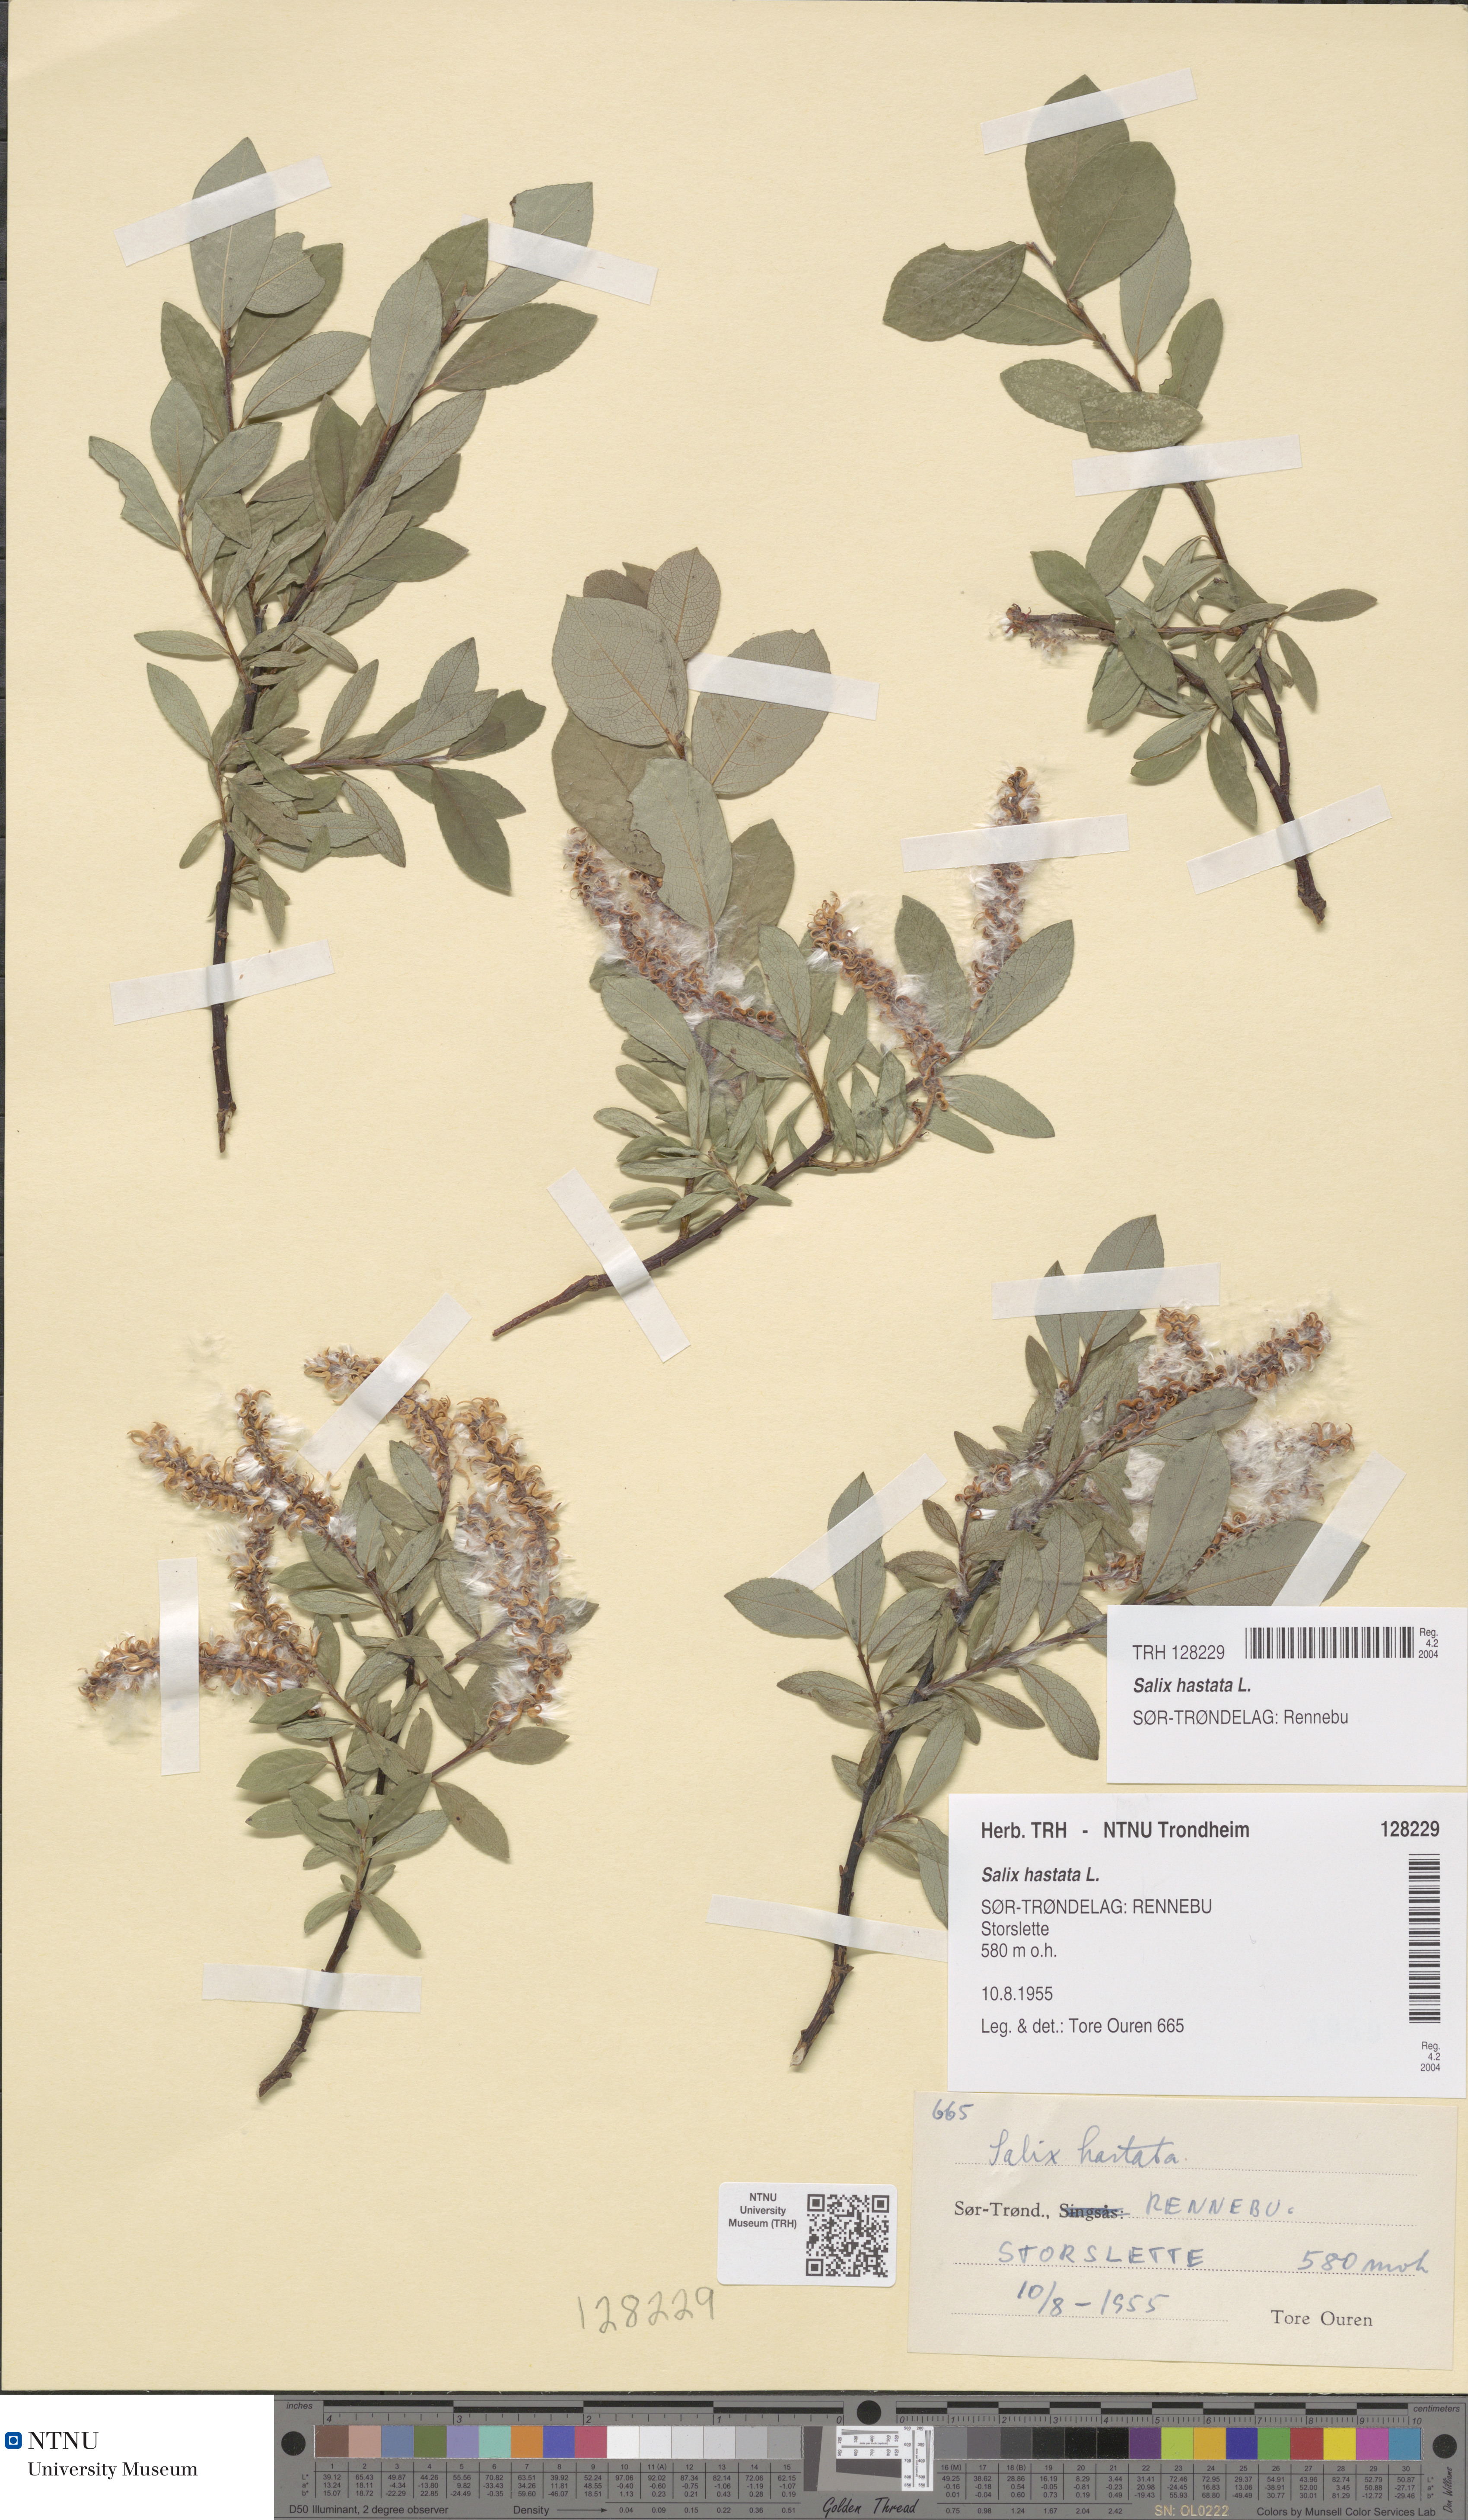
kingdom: Plantae
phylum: Tracheophyta
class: Magnoliopsida
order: Malpighiales
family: Salicaceae
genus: Salix
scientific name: Salix hastata
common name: Halberd willow
